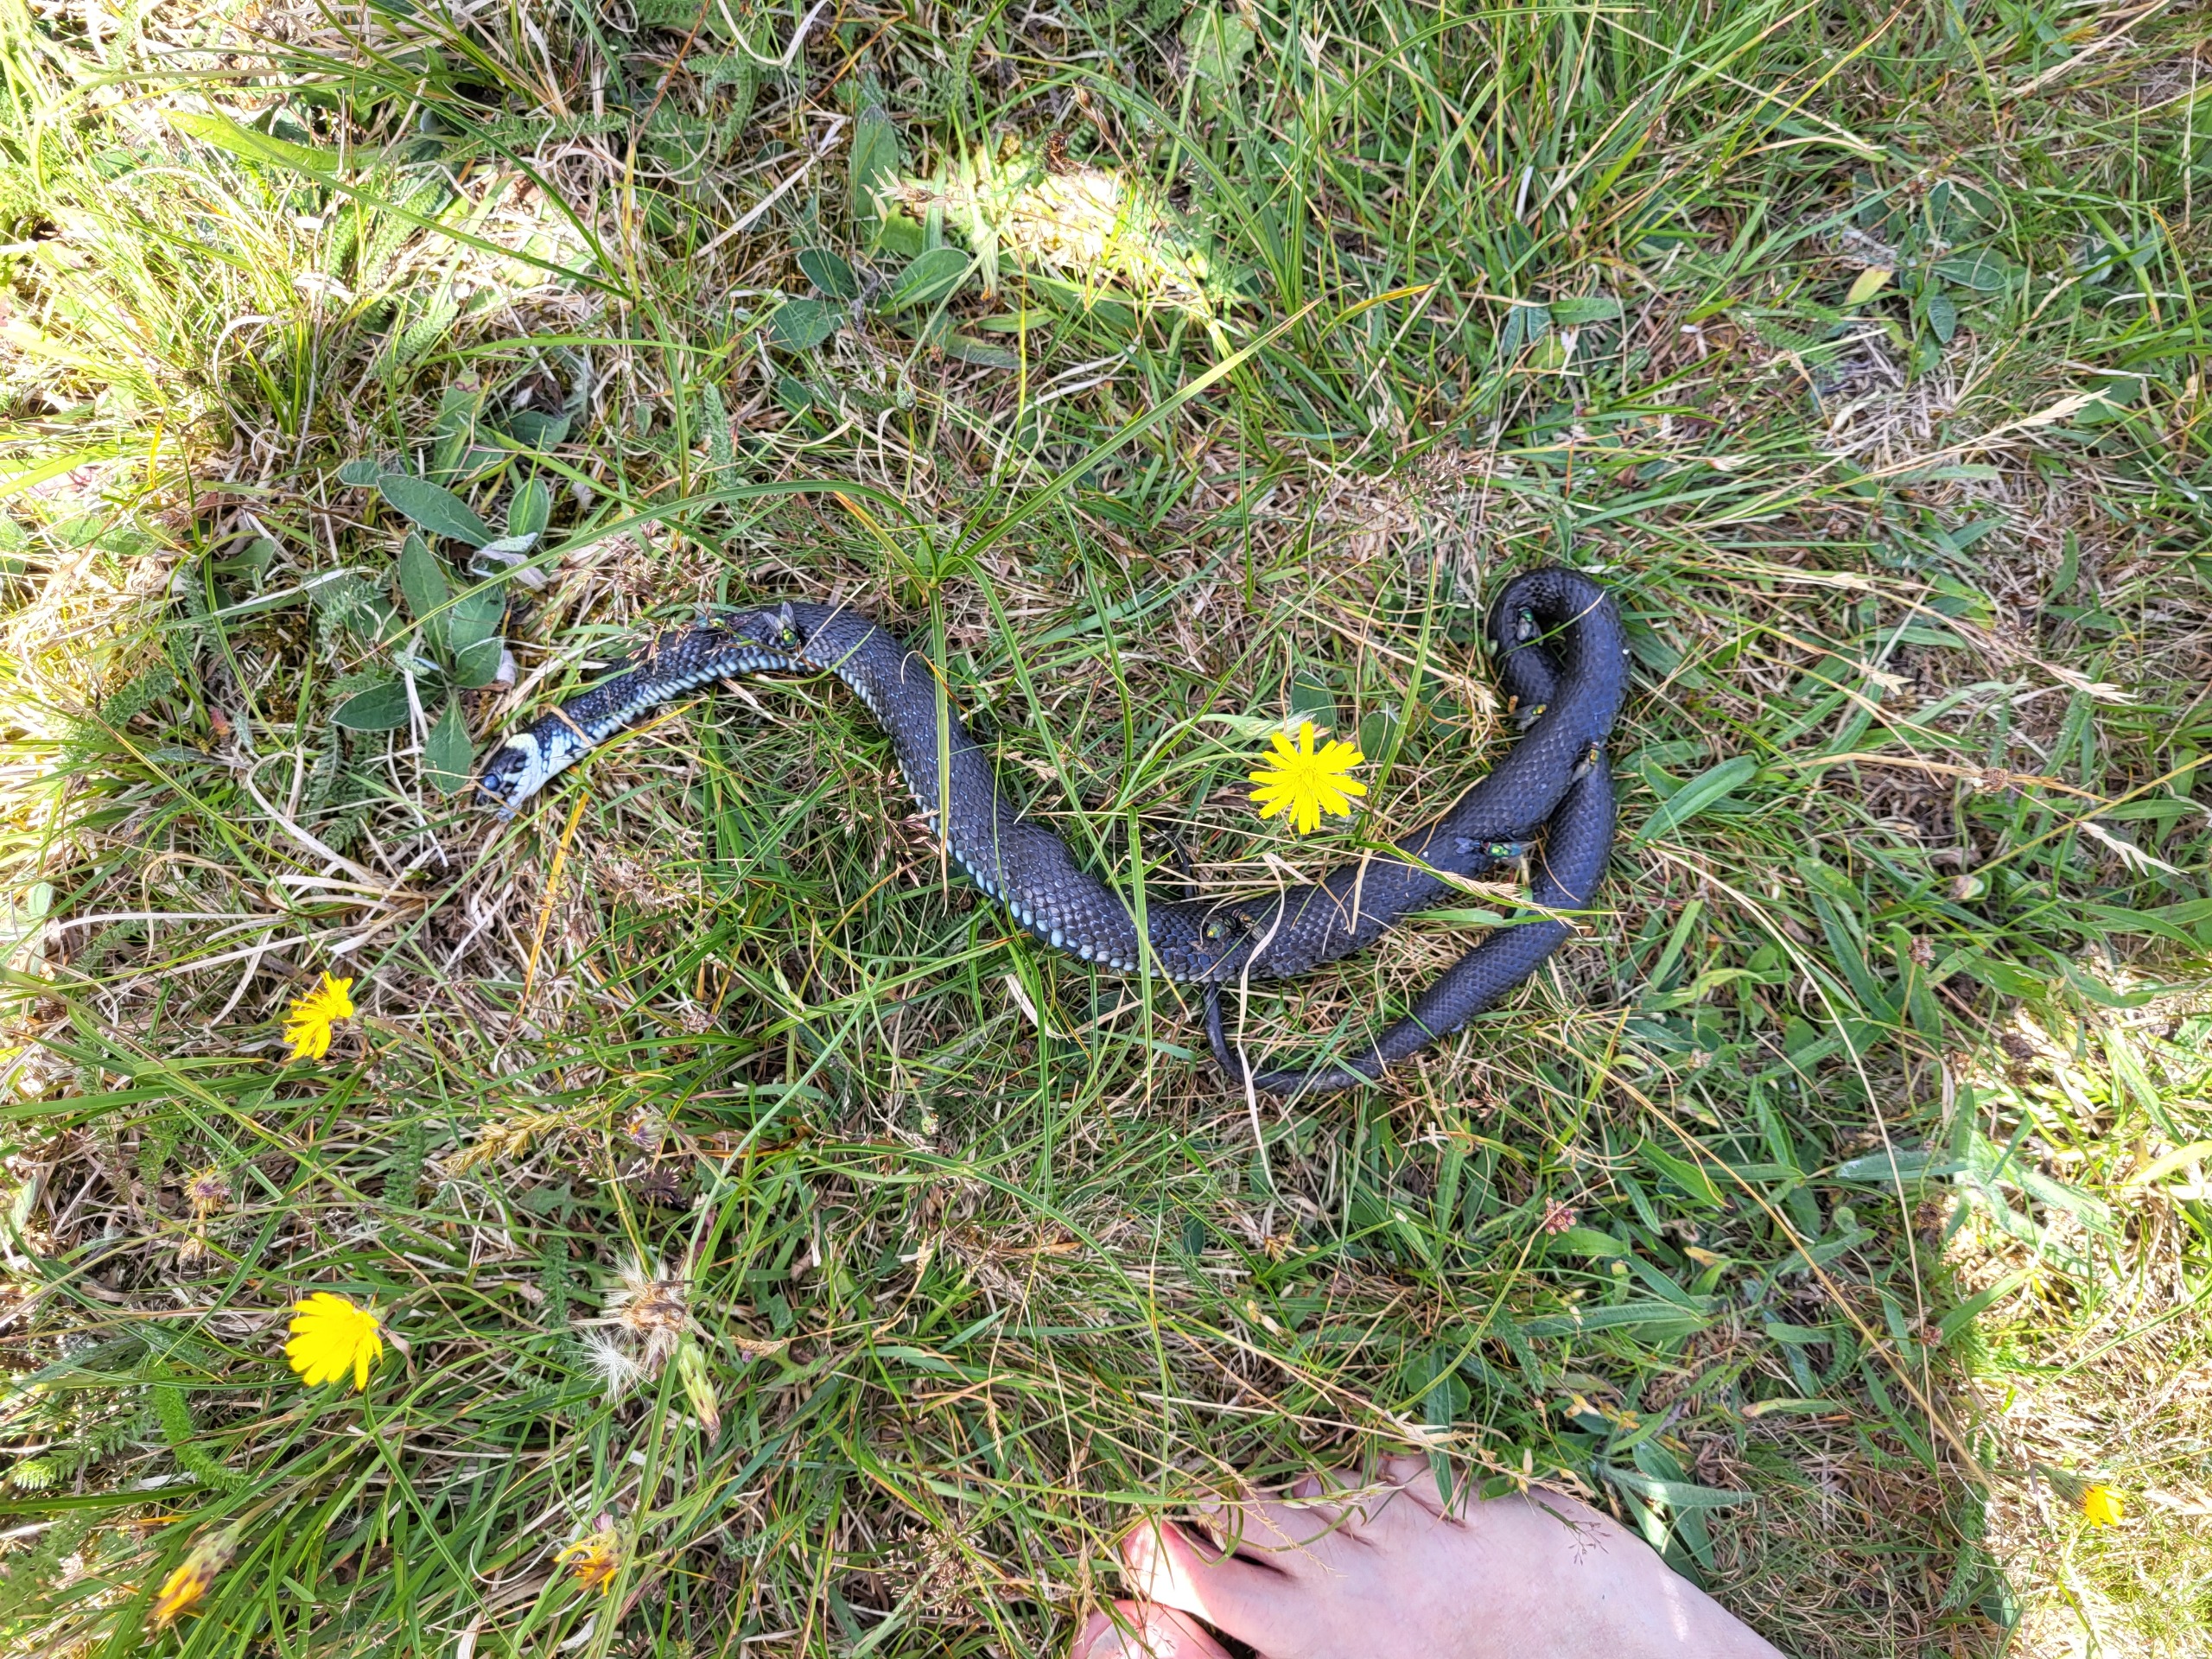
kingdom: Animalia
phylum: Chordata
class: Squamata
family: Colubridae
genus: Natrix
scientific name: Natrix natrix
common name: Snog
